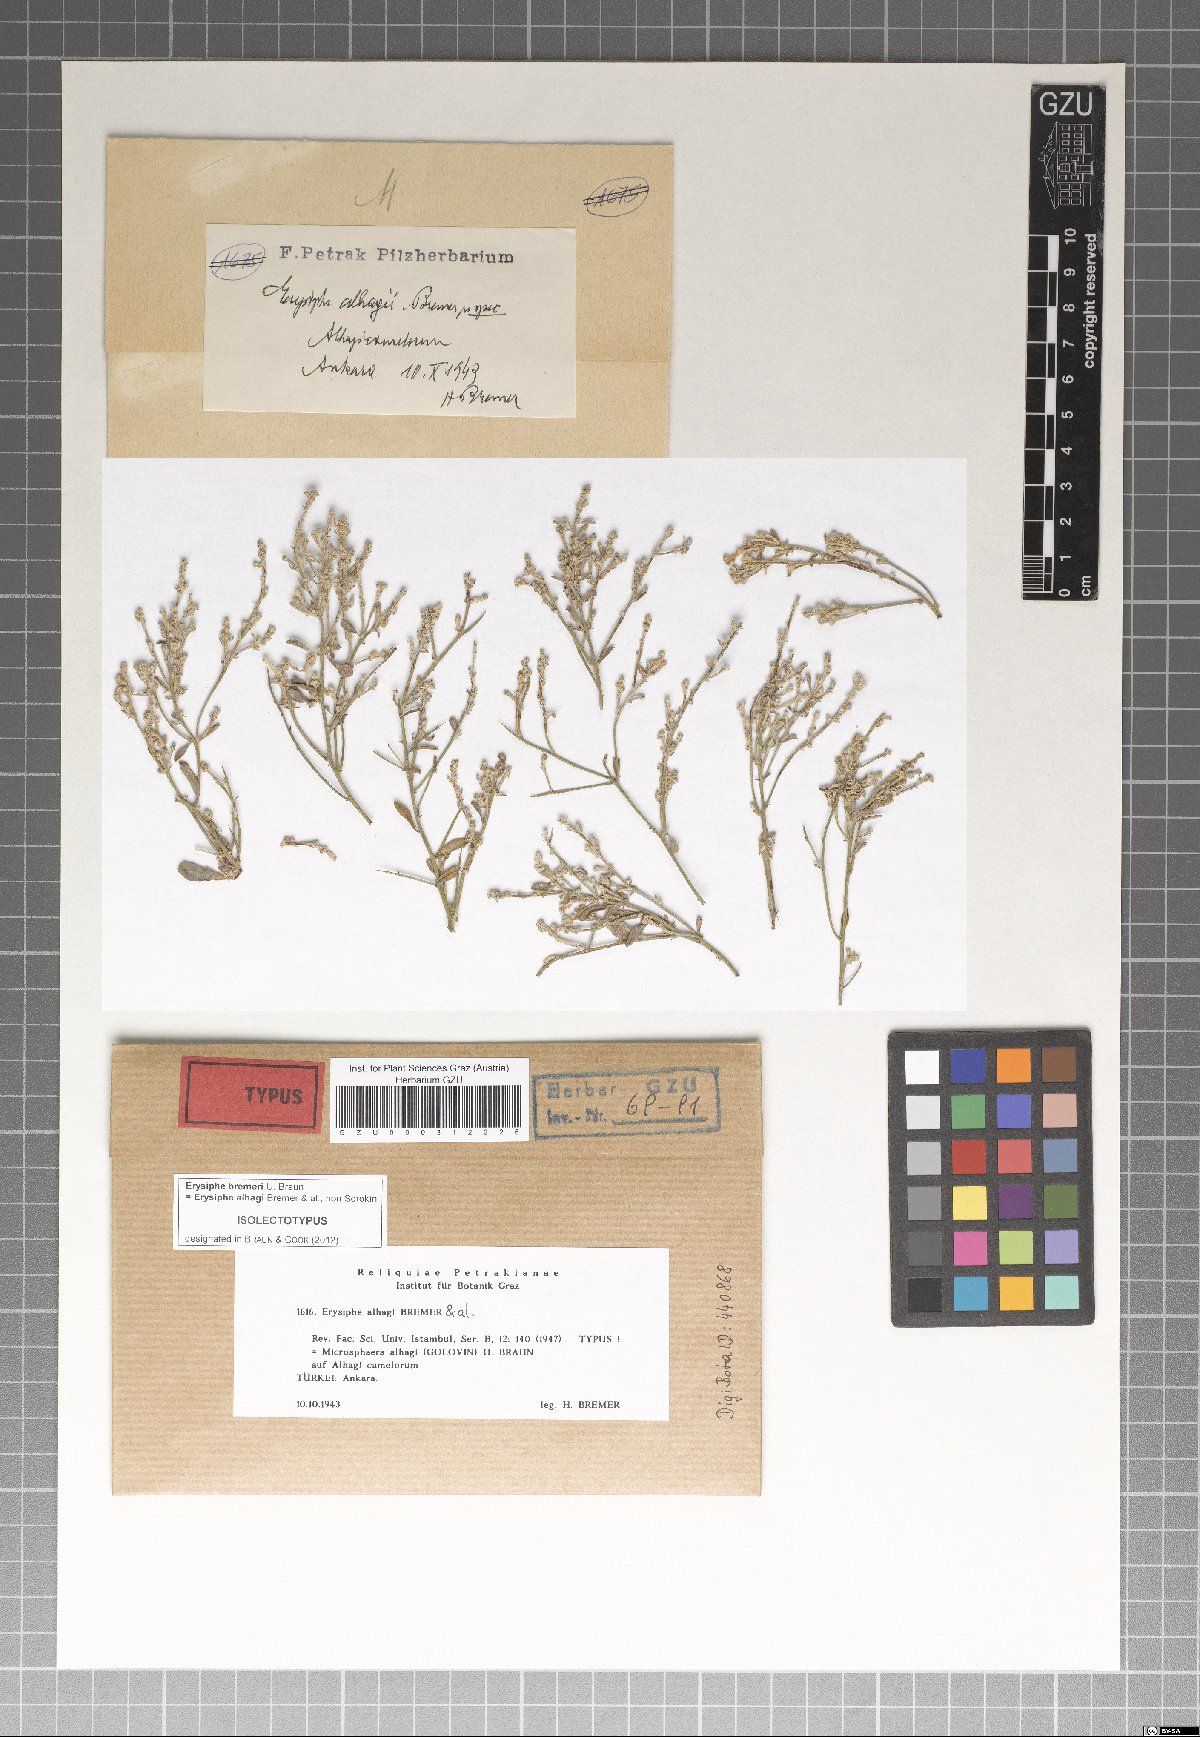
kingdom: Fungi
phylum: Ascomycota
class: Leotiomycetes
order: Helotiales
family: Erysiphaceae
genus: Erysiphe
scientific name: Erysiphe bremeri
